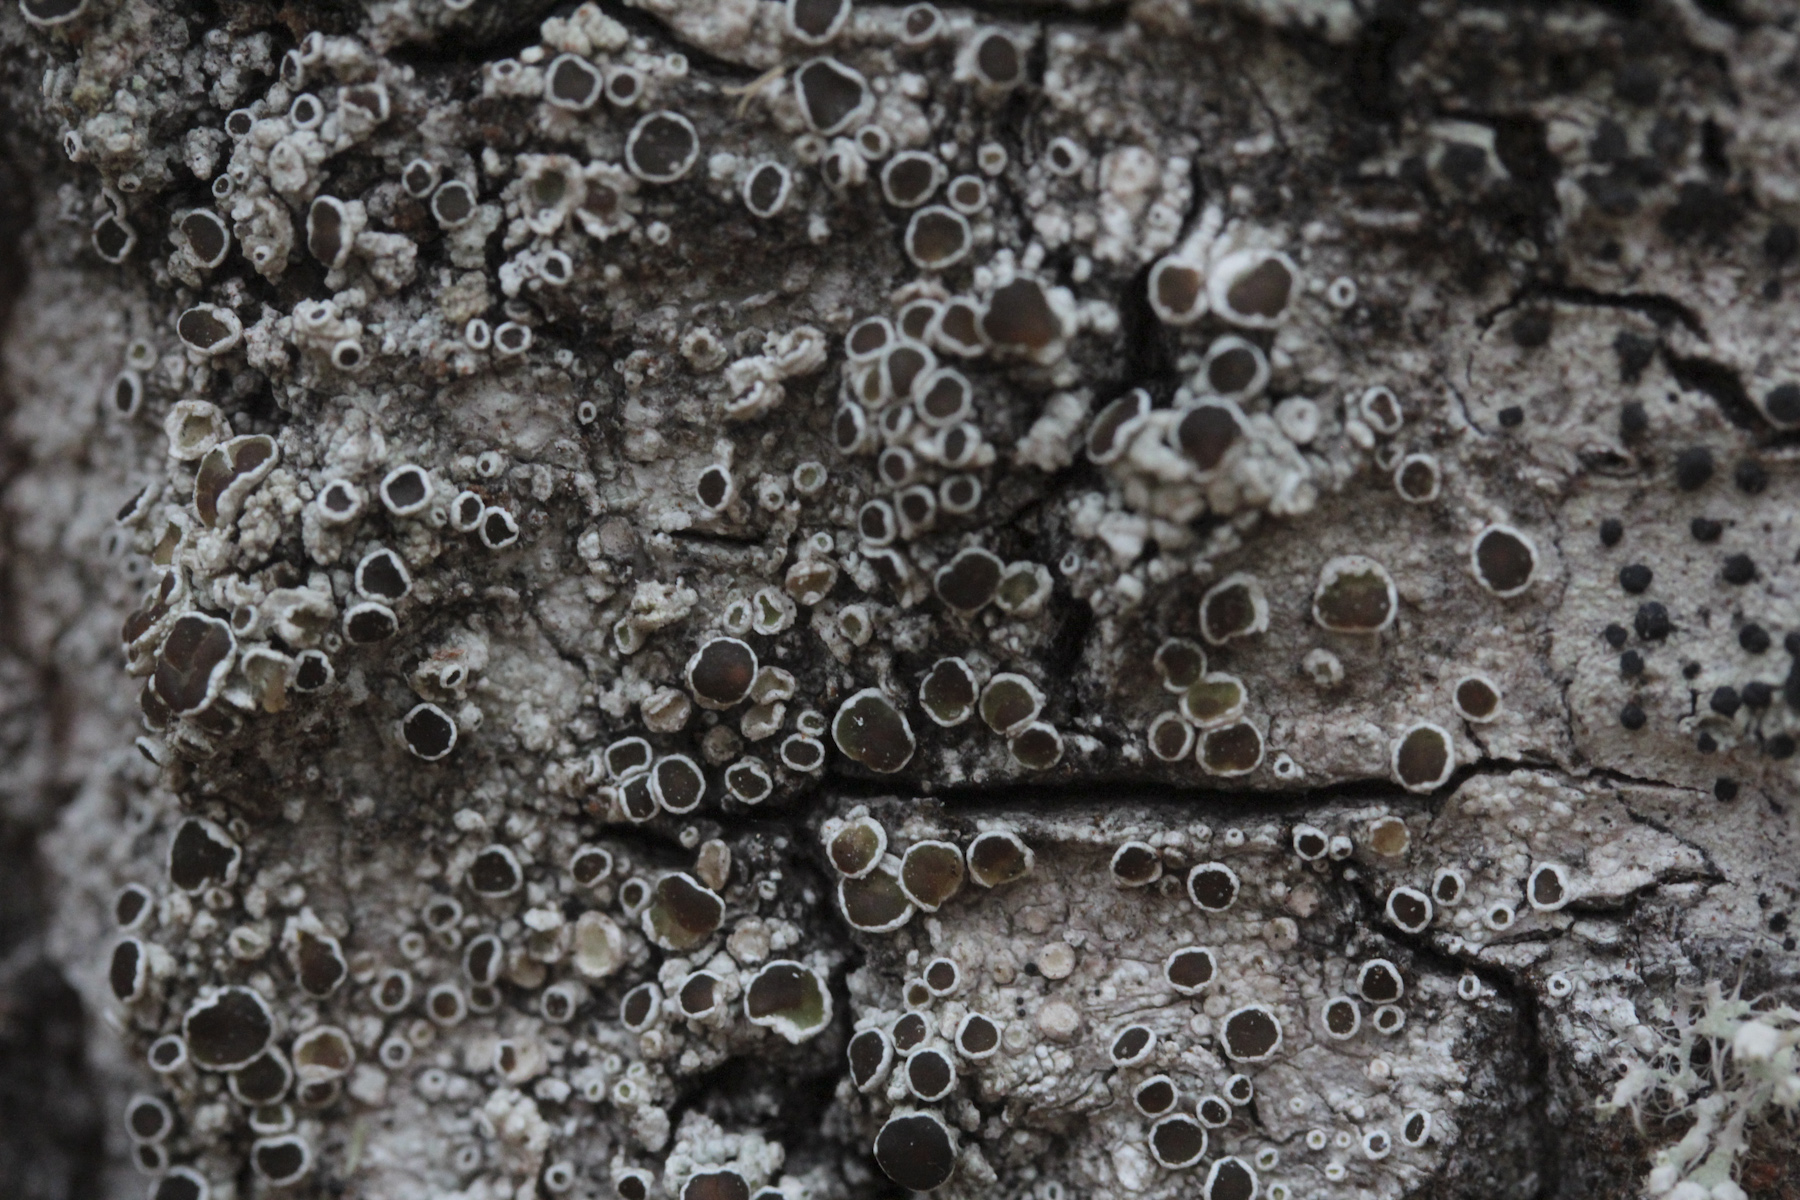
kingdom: Fungi
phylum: Ascomycota
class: Lecanoromycetes
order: Lecanorales
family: Lecanoraceae
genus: Lecanora
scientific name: Lecanora albella
